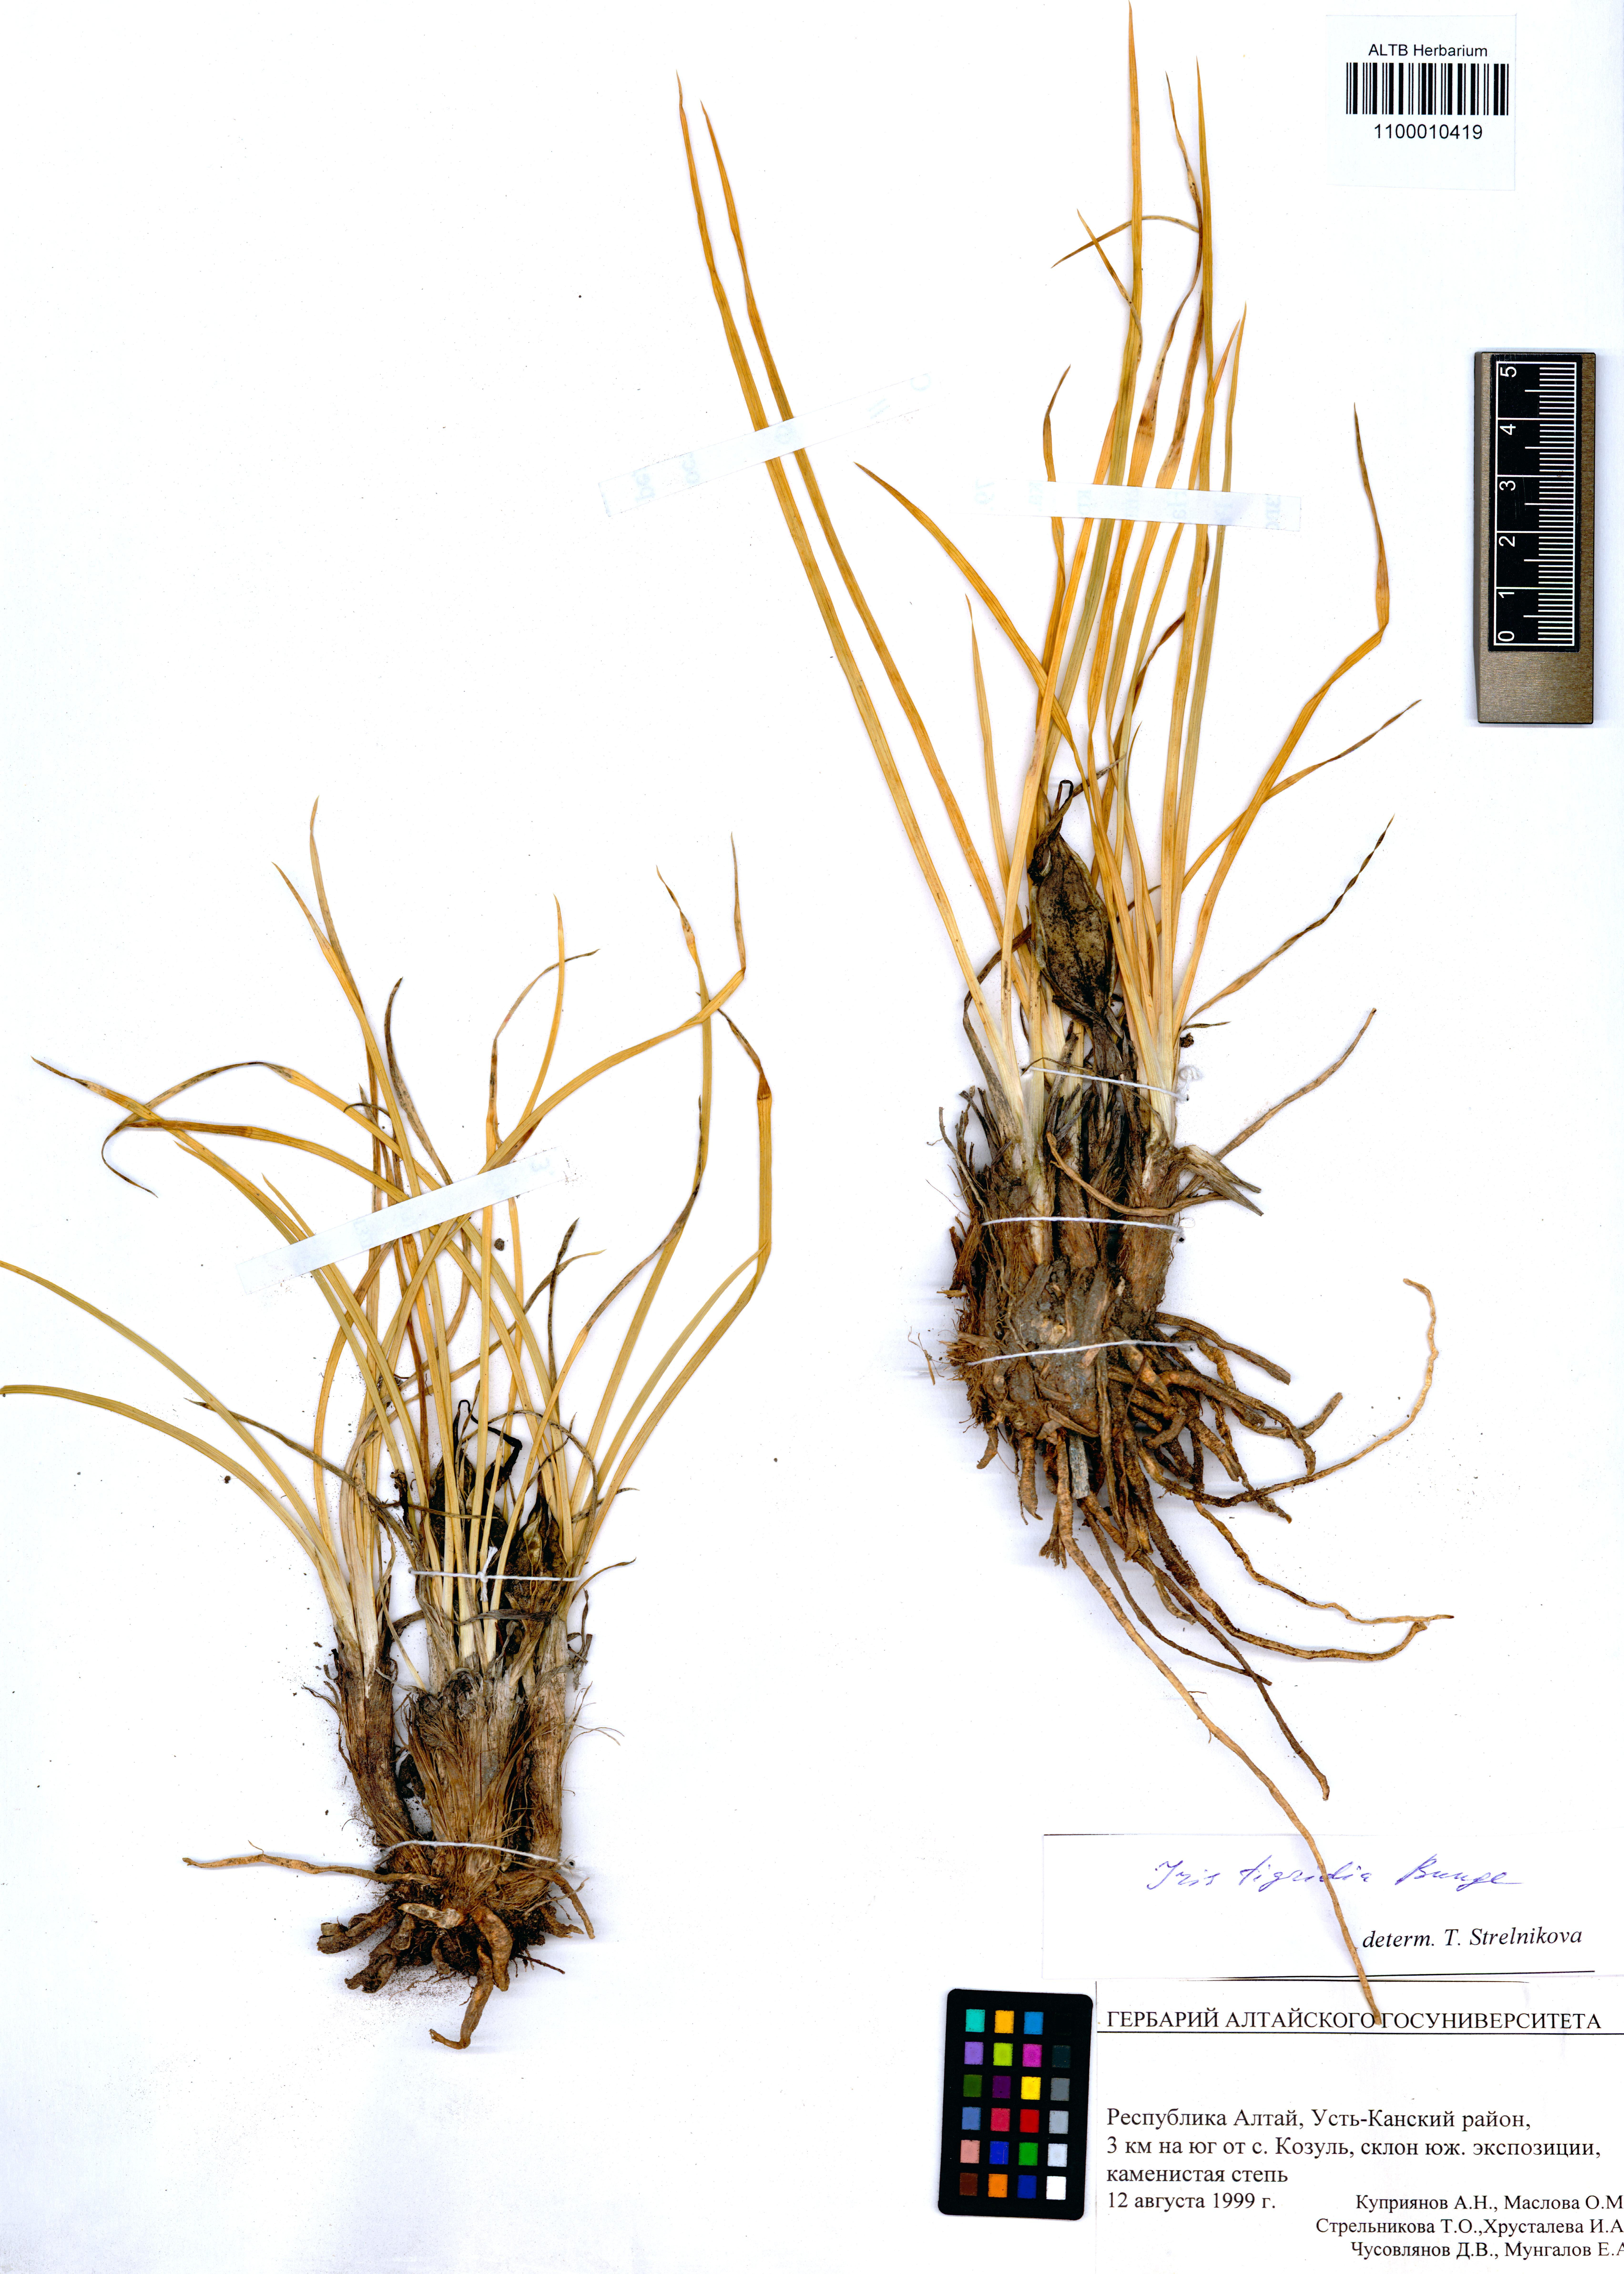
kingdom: Plantae
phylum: Tracheophyta
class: Liliopsida
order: Asparagales
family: Iridaceae
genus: Iris
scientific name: Iris tigridia
